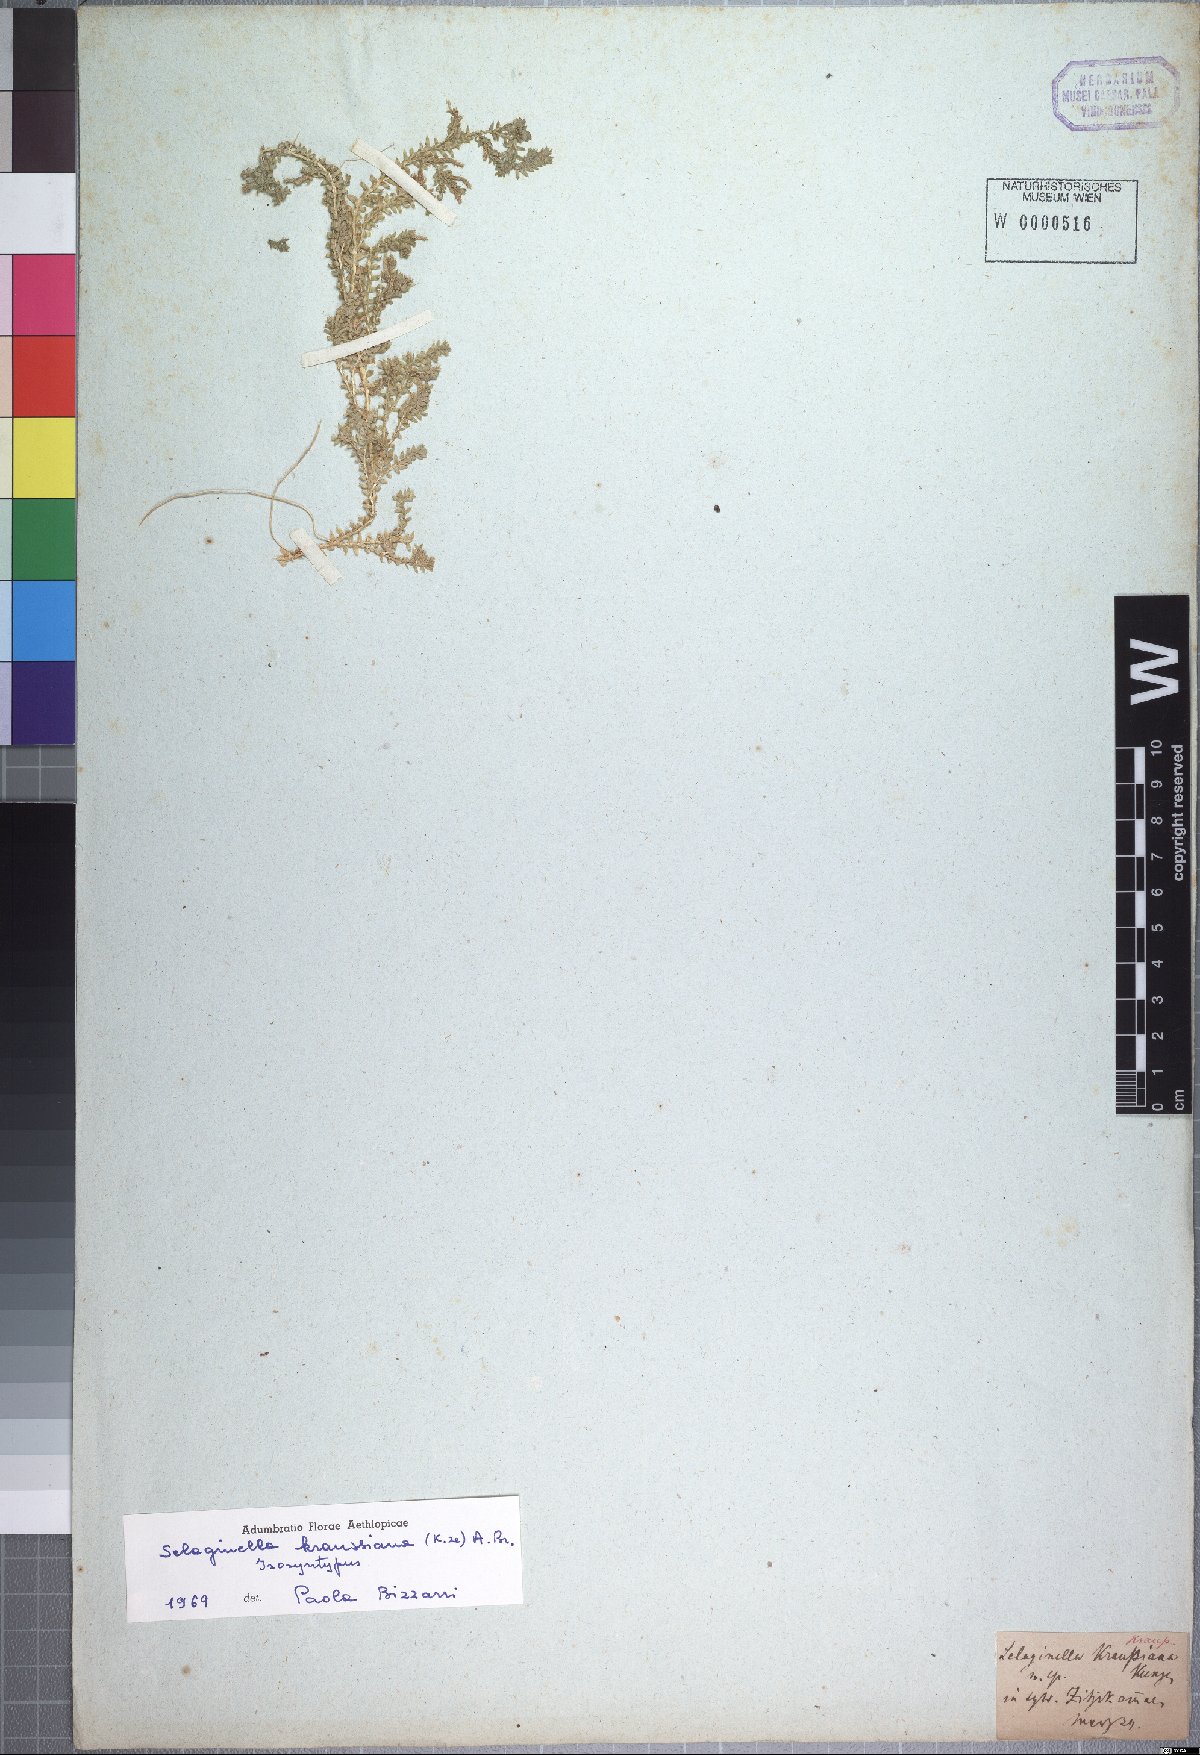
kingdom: Plantae
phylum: Tracheophyta
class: Lycopodiopsida
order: Selaginellales
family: Selaginellaceae
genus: Selaginella
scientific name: Selaginella kraussiana
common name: Krauss' spikemoss
